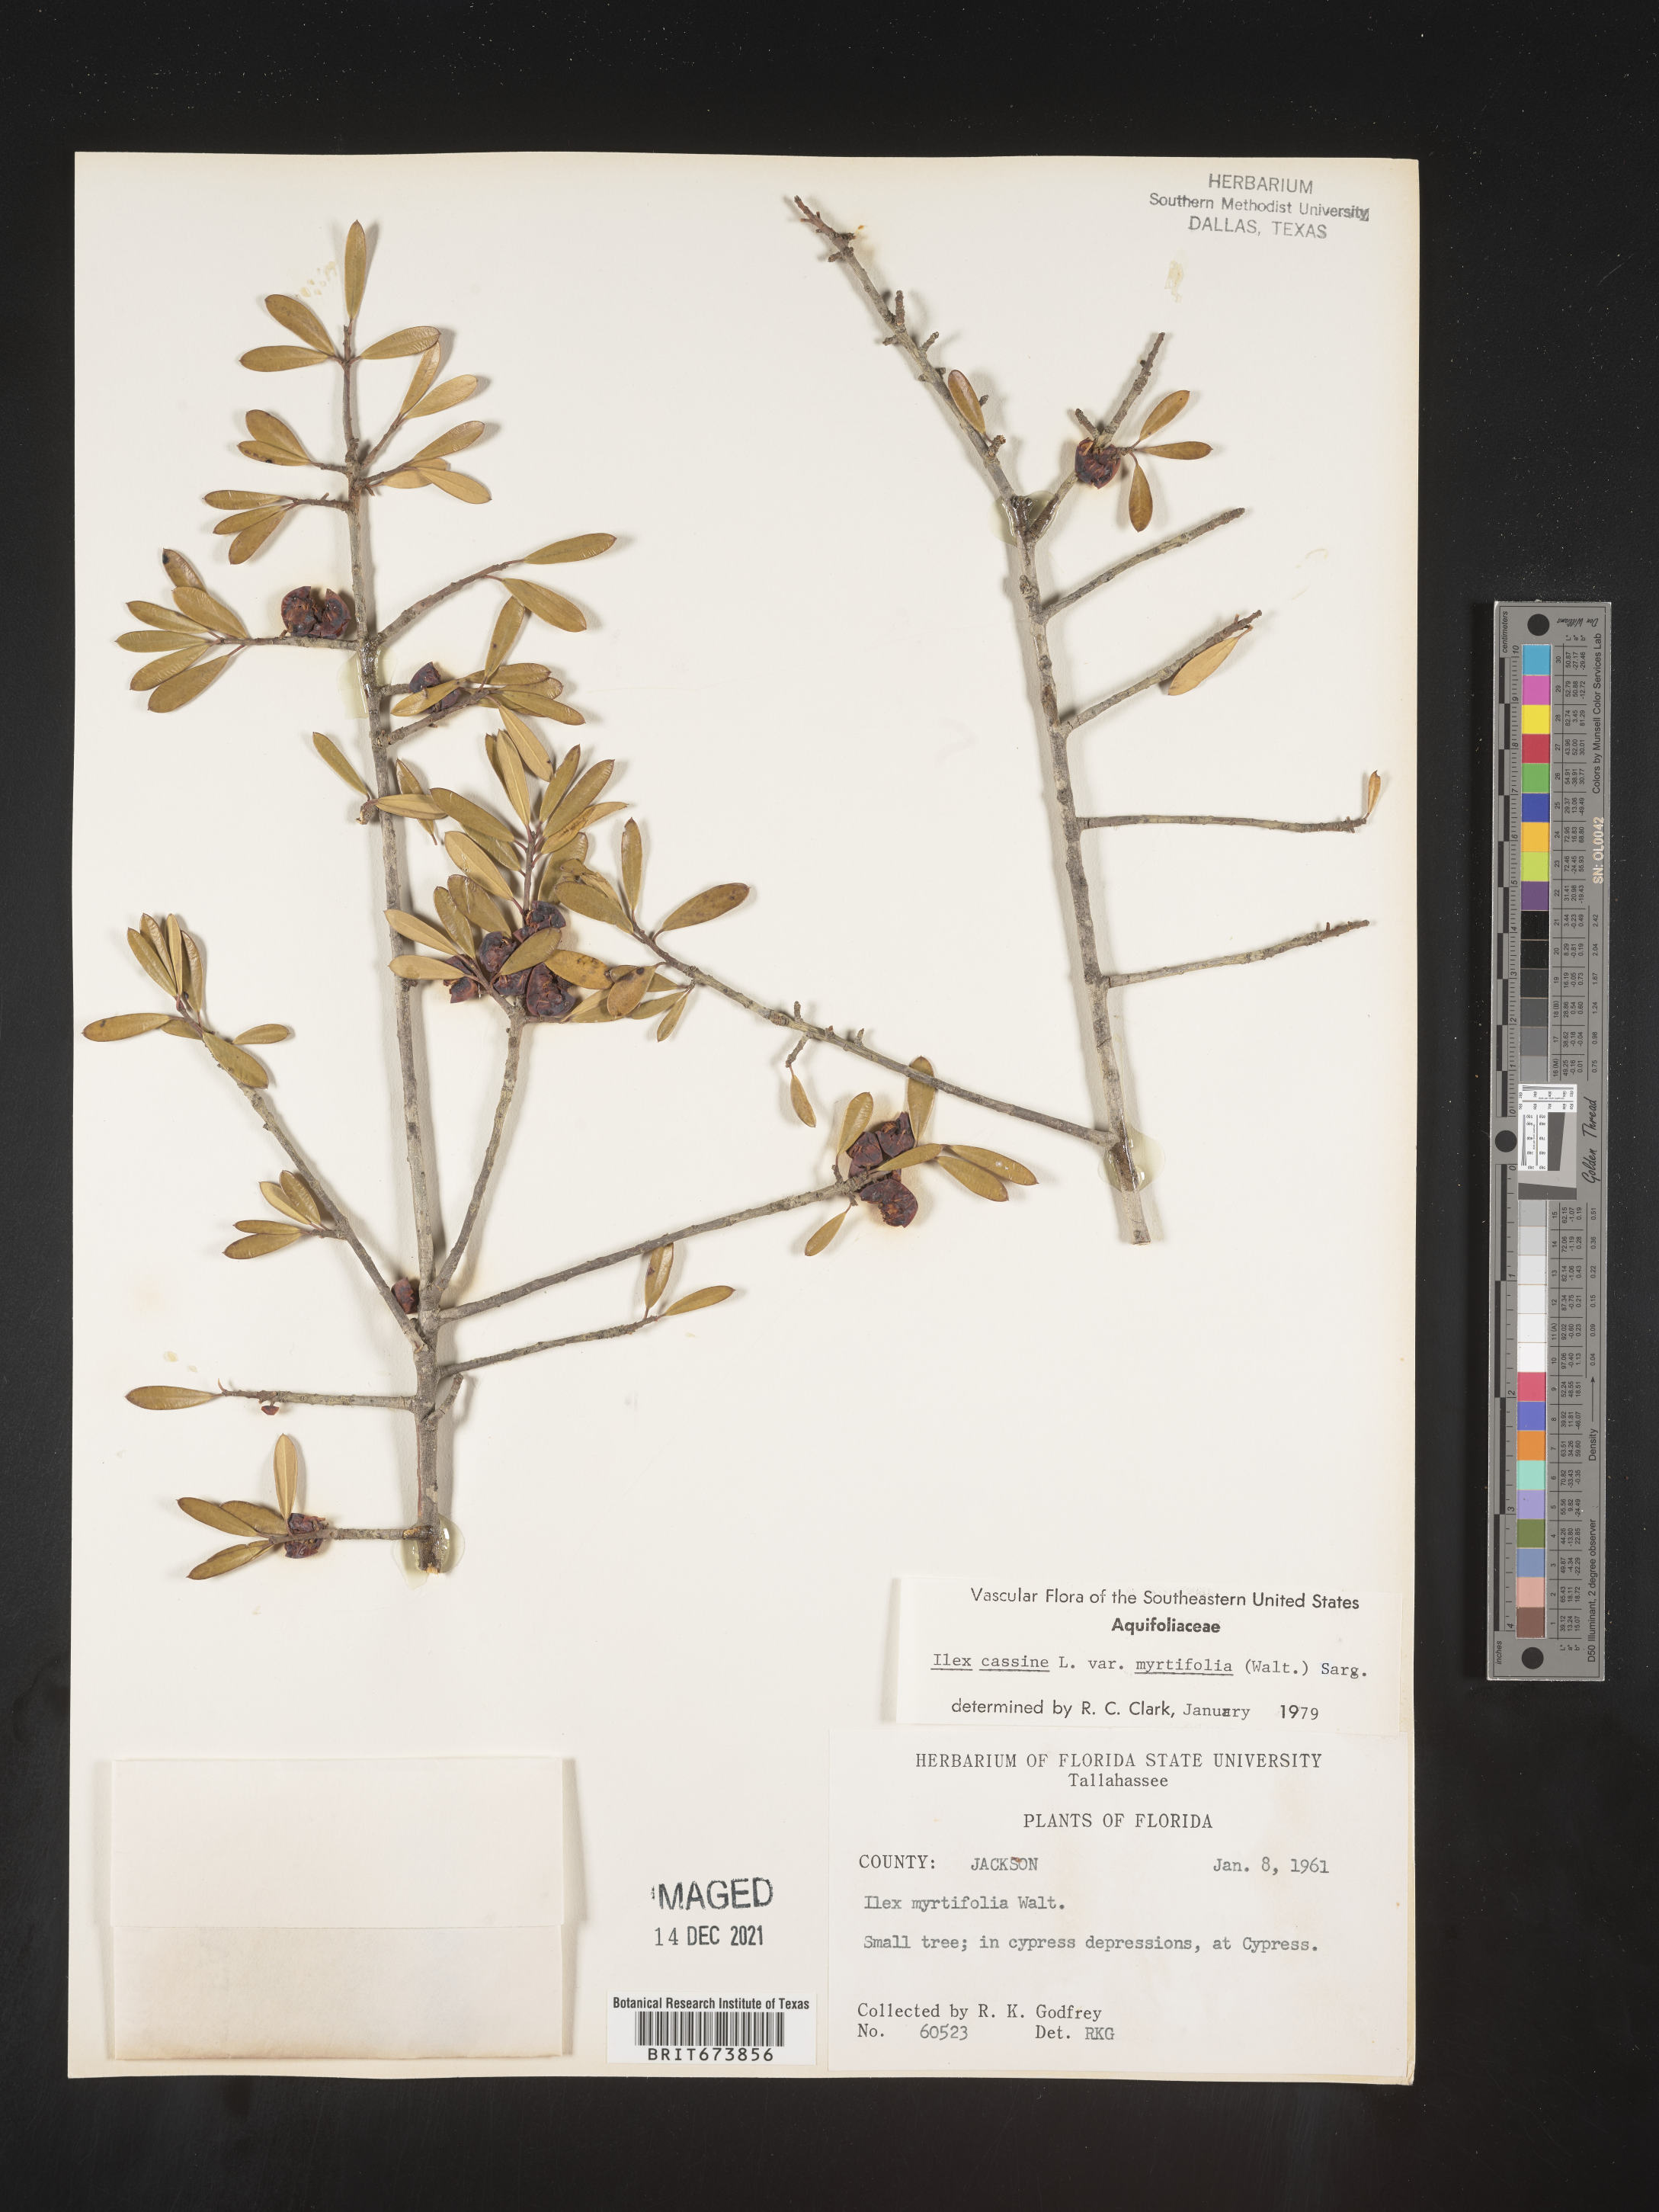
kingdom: Plantae
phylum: Tracheophyta
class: Magnoliopsida
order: Aquifoliales
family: Aquifoliaceae
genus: Ilex
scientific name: Ilex myrtifolia
